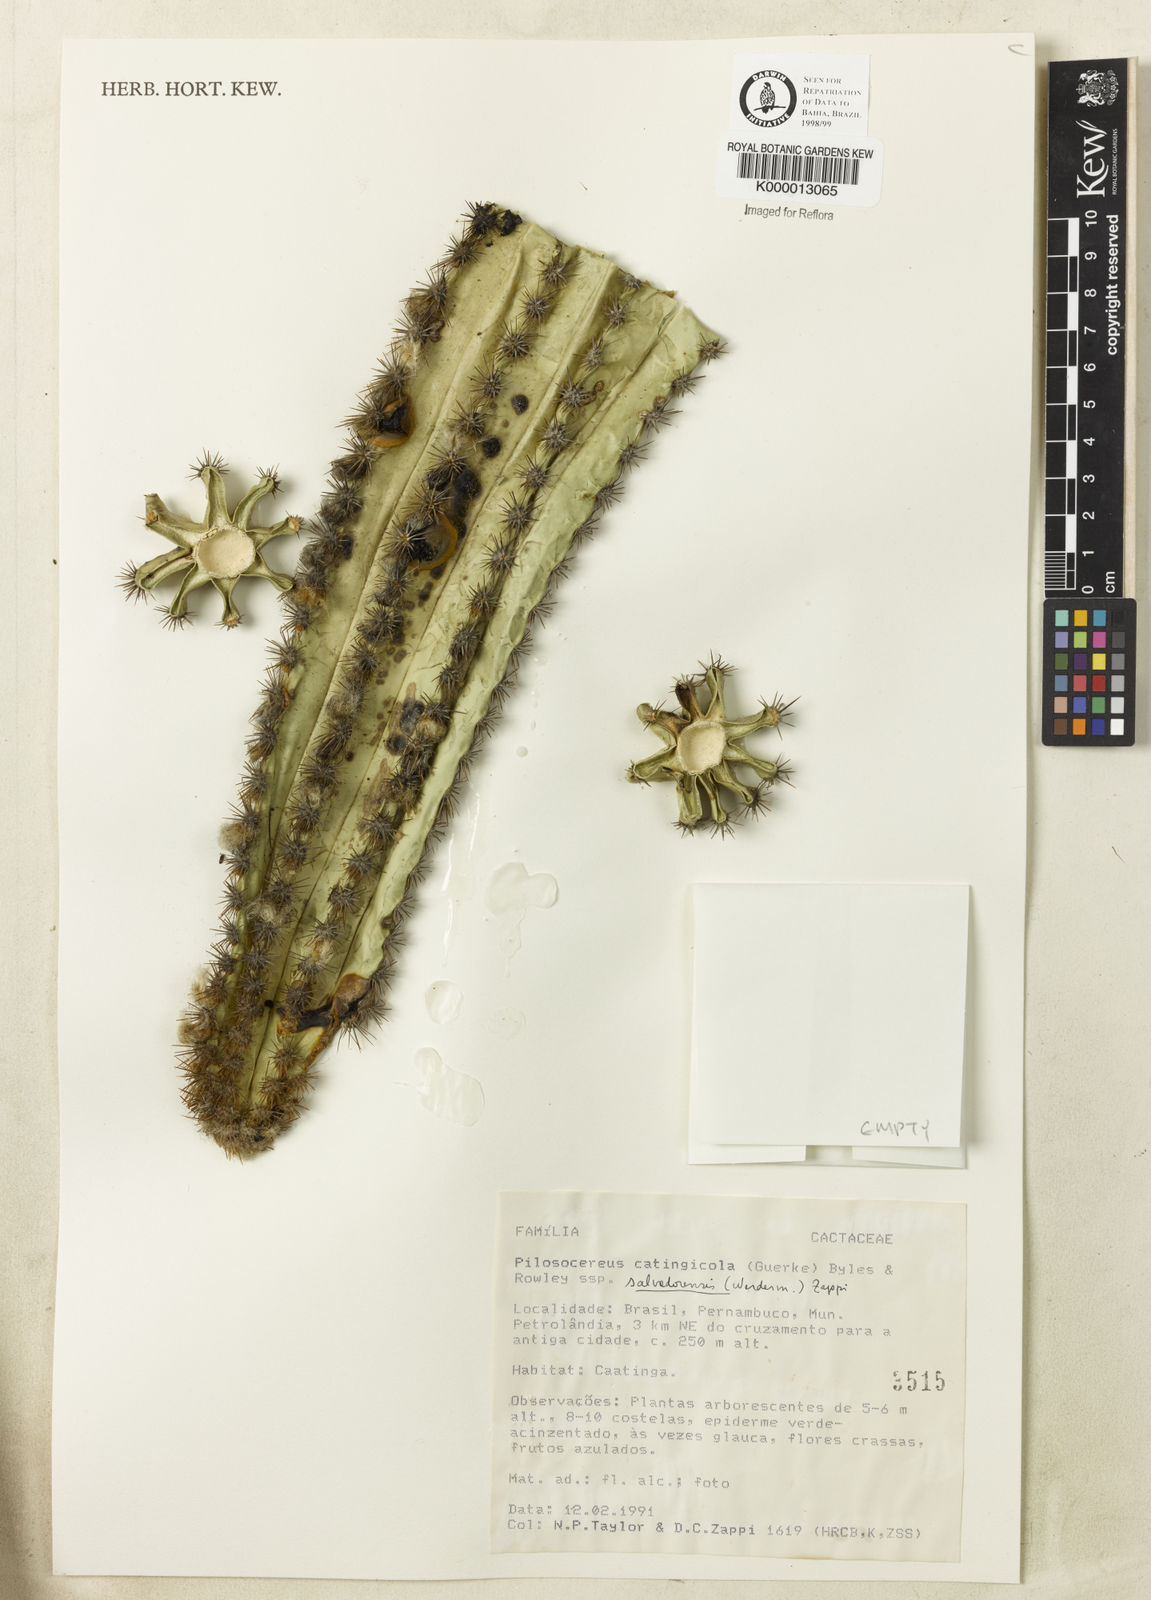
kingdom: Plantae
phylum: Tracheophyta
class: Magnoliopsida
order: Caryophyllales
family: Cactaceae
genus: Pilosocereus
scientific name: Pilosocereus catingicola
